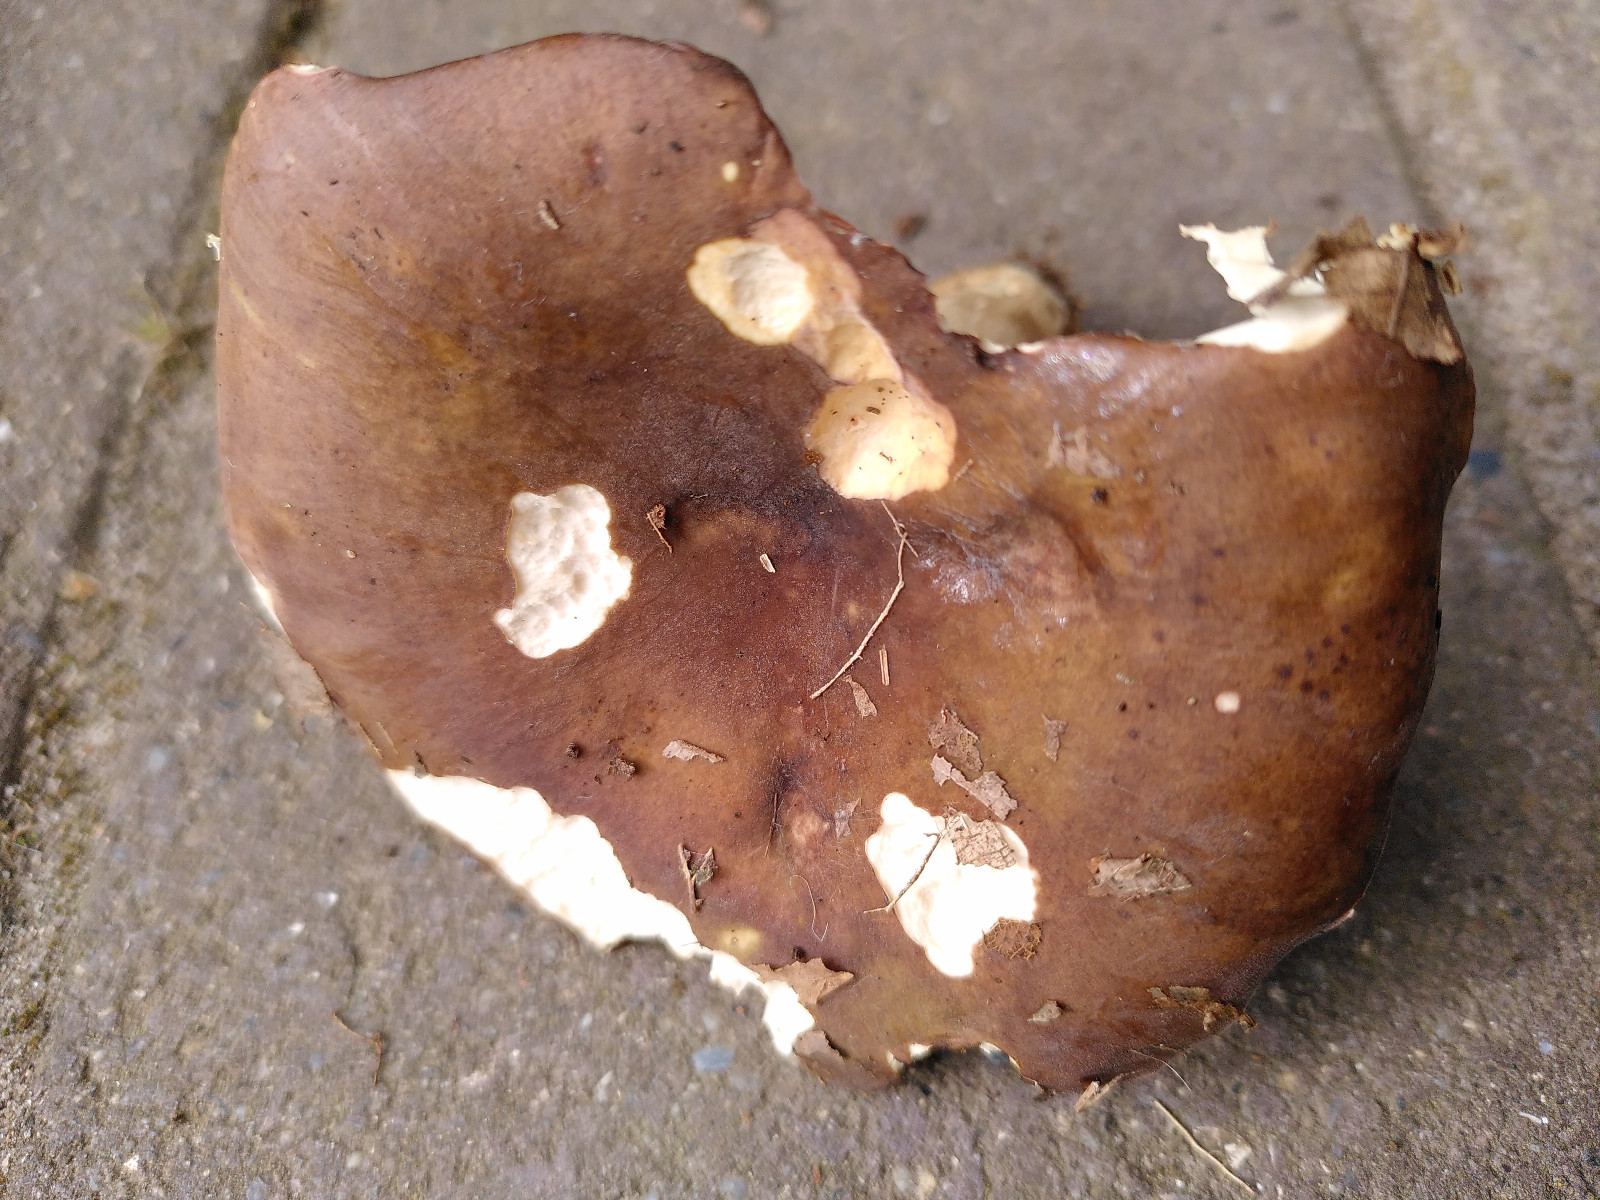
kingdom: Fungi
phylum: Basidiomycota
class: Agaricomycetes
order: Russulales
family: Russulaceae
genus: Russula
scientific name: Russula
